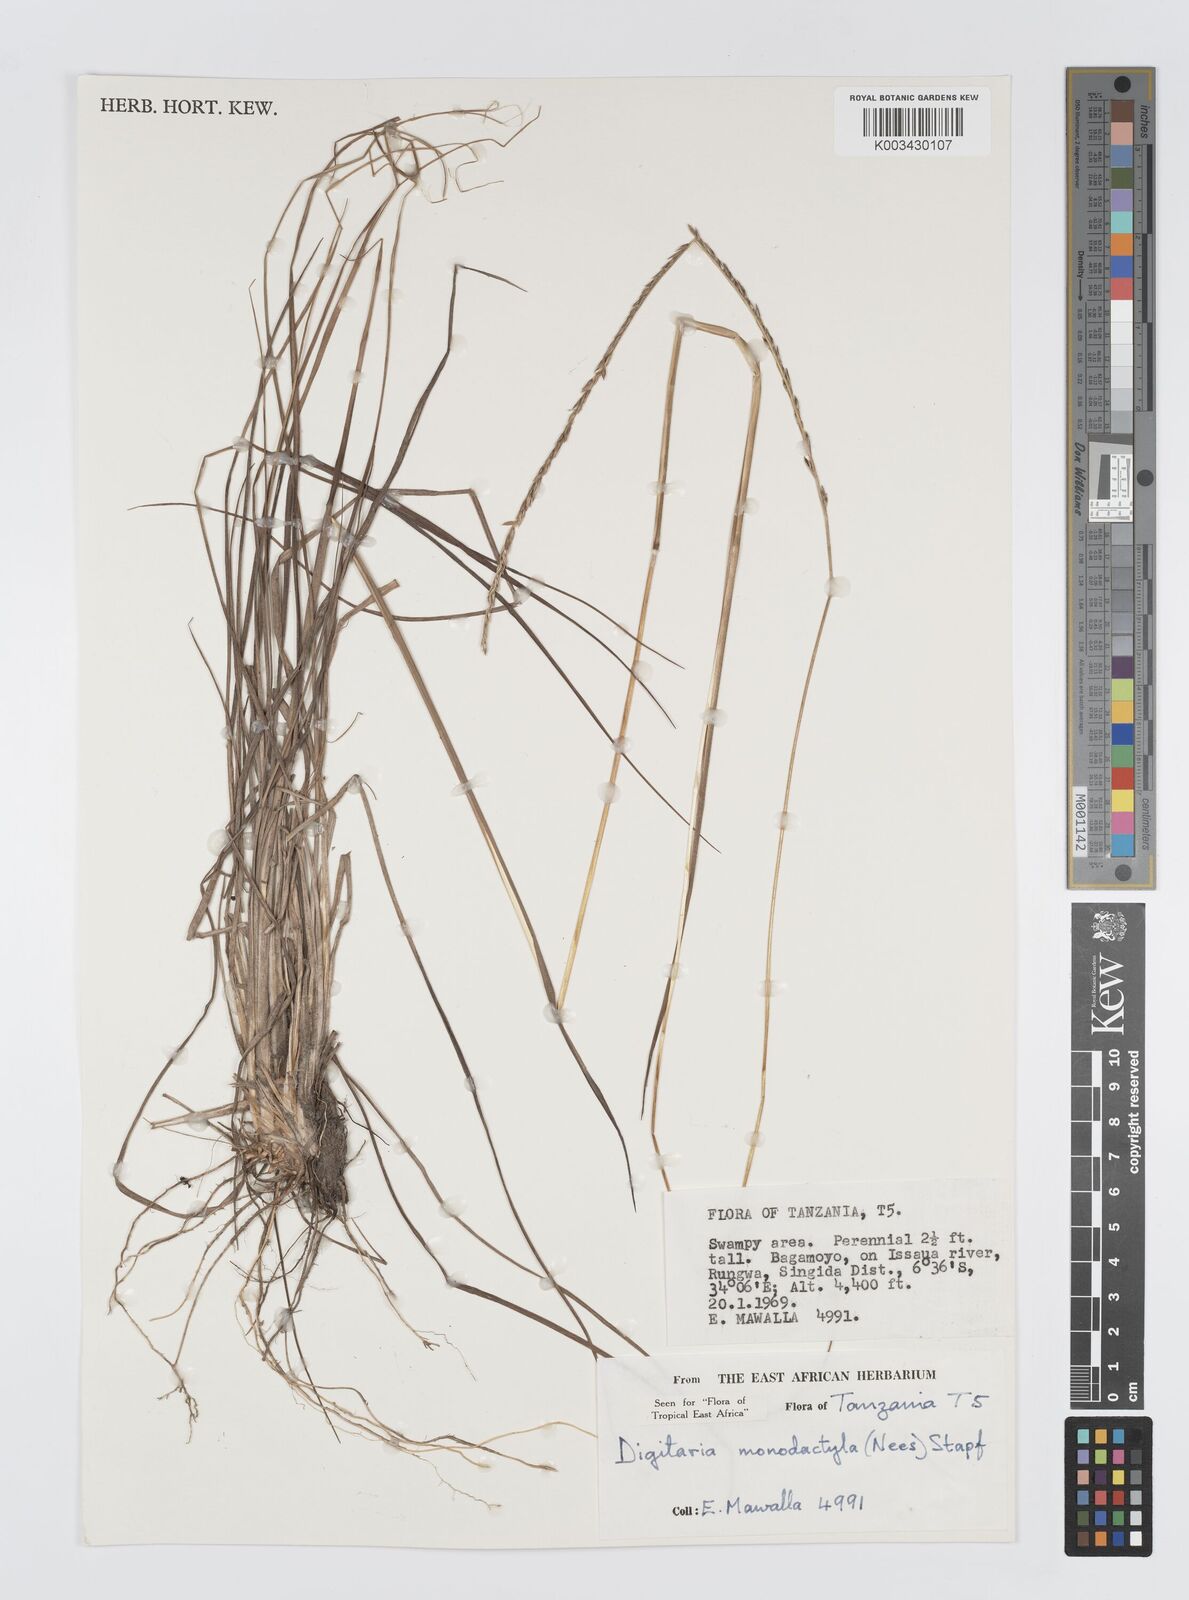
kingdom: Plantae
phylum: Tracheophyta
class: Liliopsida
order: Poales
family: Poaceae
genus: Digitaria
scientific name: Digitaria monodactyla
